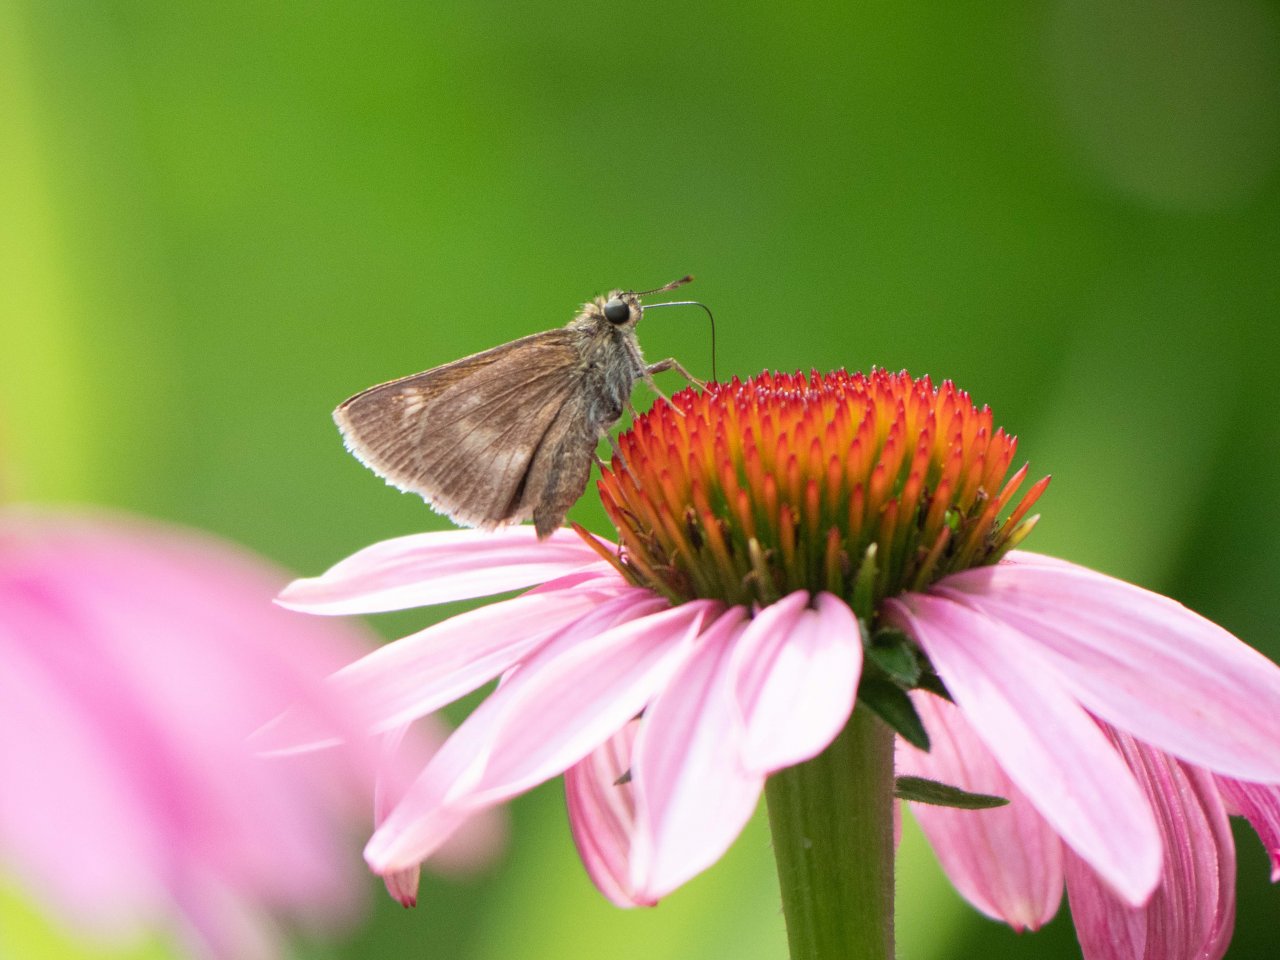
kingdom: Animalia
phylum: Arthropoda
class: Insecta
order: Lepidoptera
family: Hesperiidae
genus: Polites
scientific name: Polites egeremet
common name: Northern Broken-Dash
